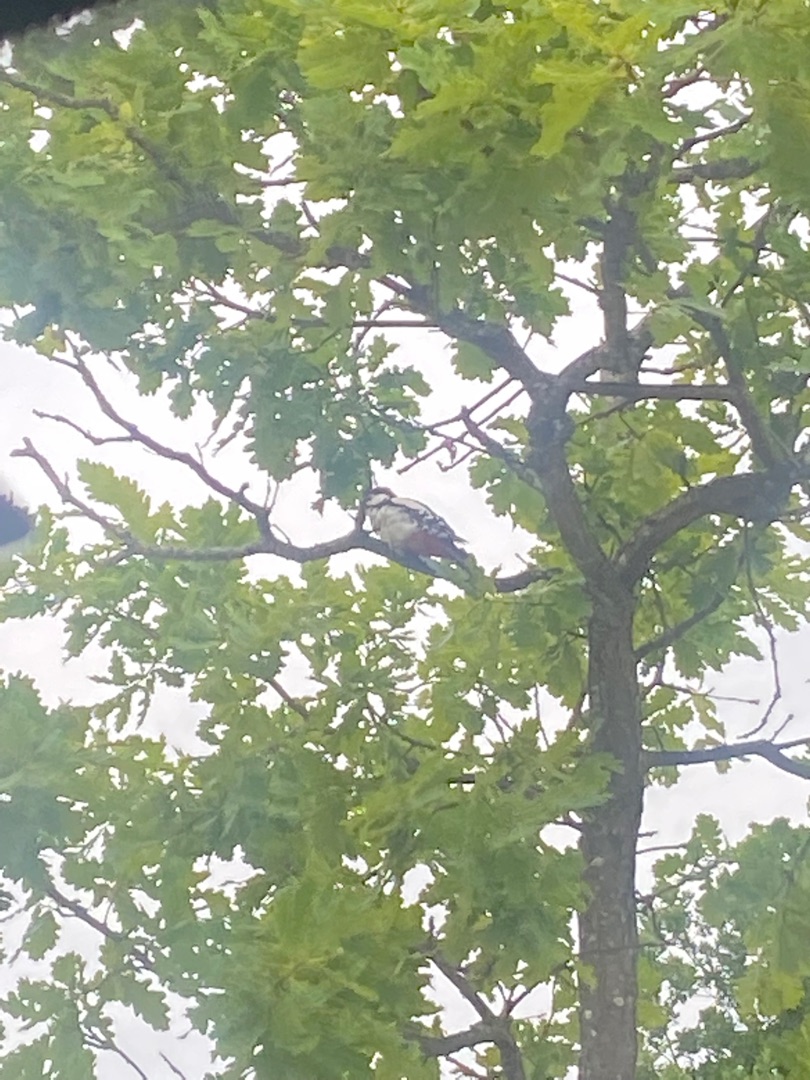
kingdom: Animalia
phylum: Chordata
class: Aves
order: Piciformes
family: Picidae
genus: Dendrocopos
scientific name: Dendrocopos major
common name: Stor flagspætte
